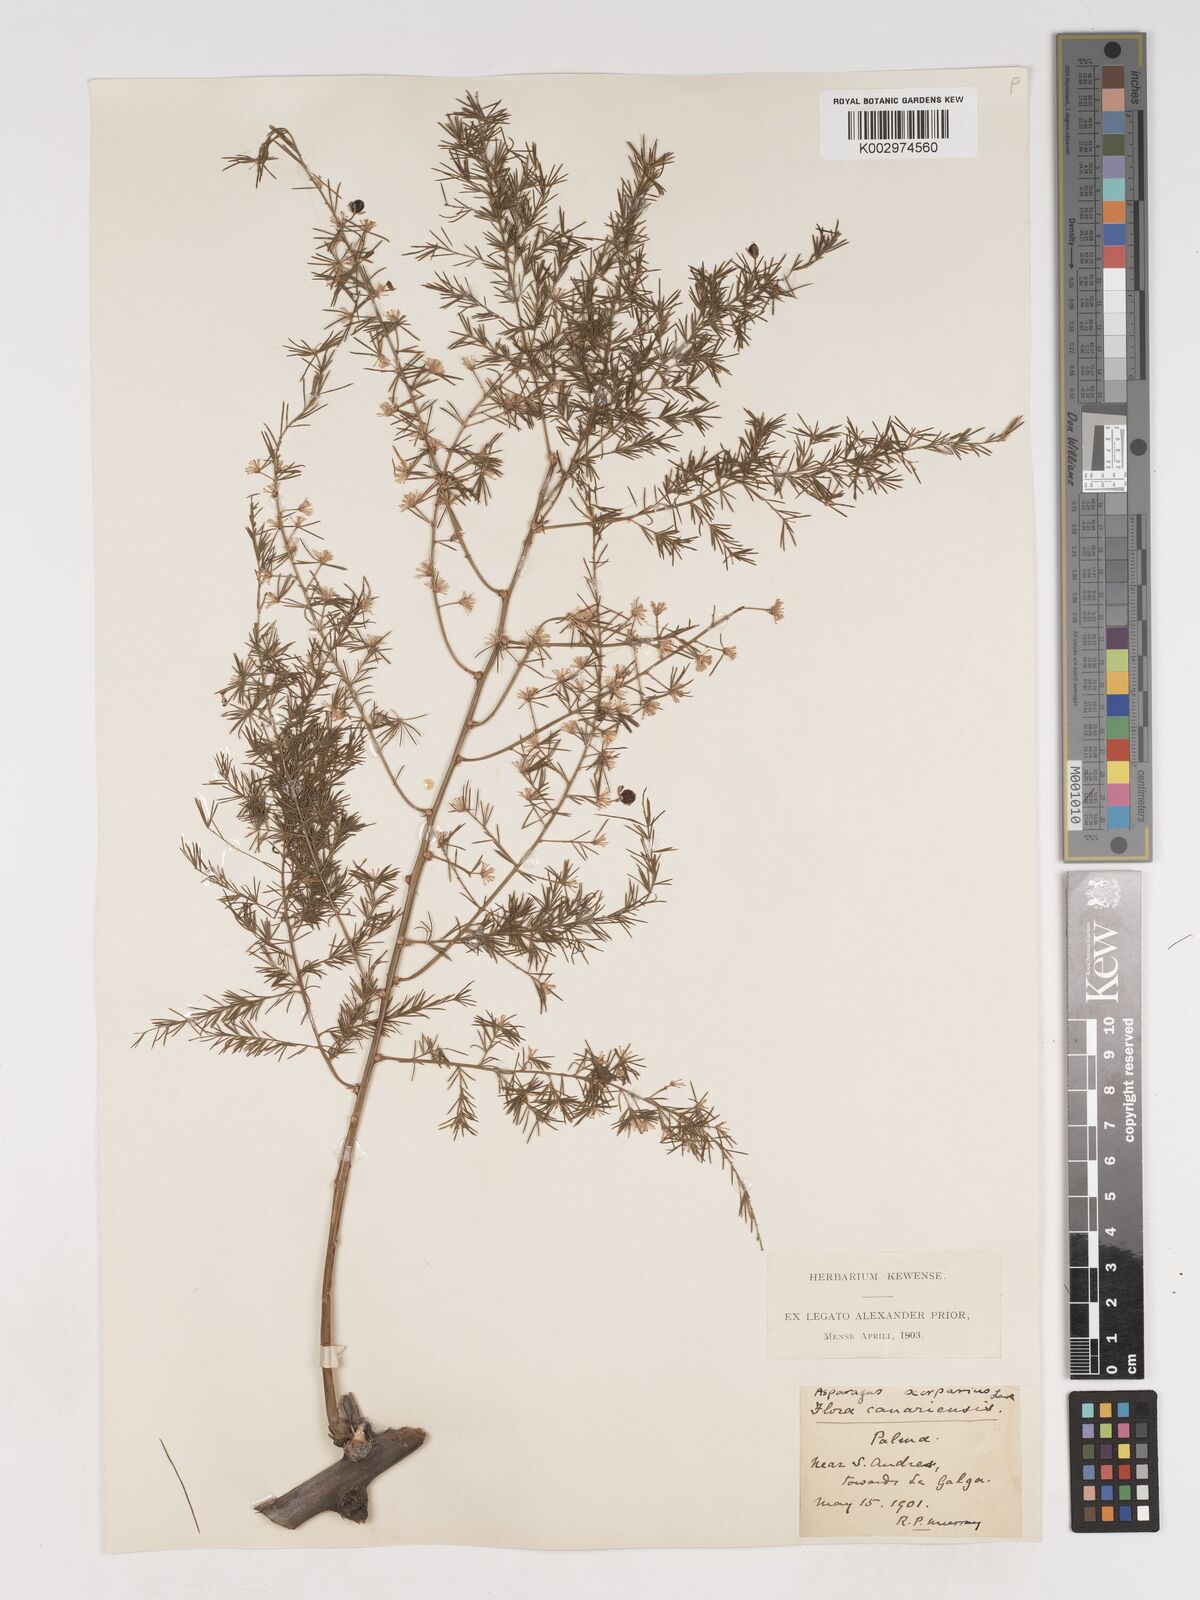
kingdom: Plantae
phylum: Tracheophyta
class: Liliopsida
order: Asparagales
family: Asparagaceae
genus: Asparagus
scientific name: Asparagus scoparius
